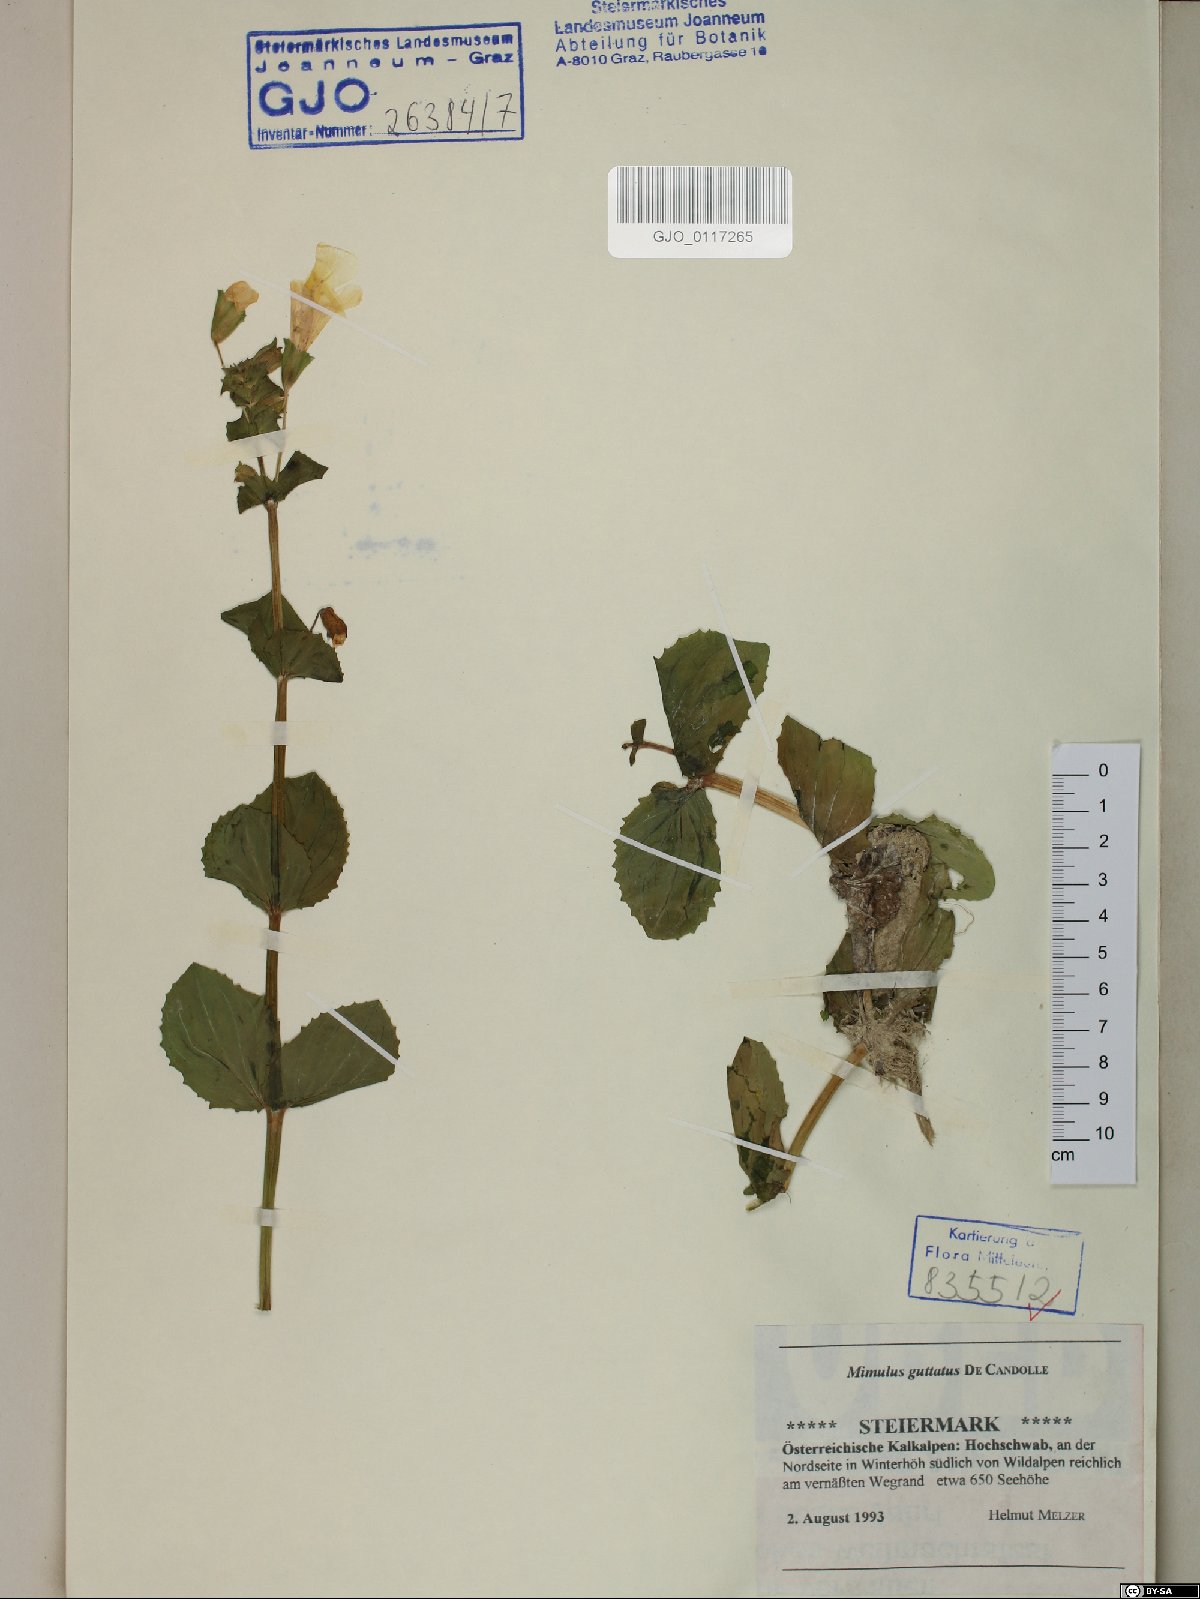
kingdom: Plantae
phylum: Tracheophyta
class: Magnoliopsida
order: Lamiales
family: Phrymaceae
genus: Erythranthe
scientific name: Erythranthe guttata
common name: Monkeyflower
